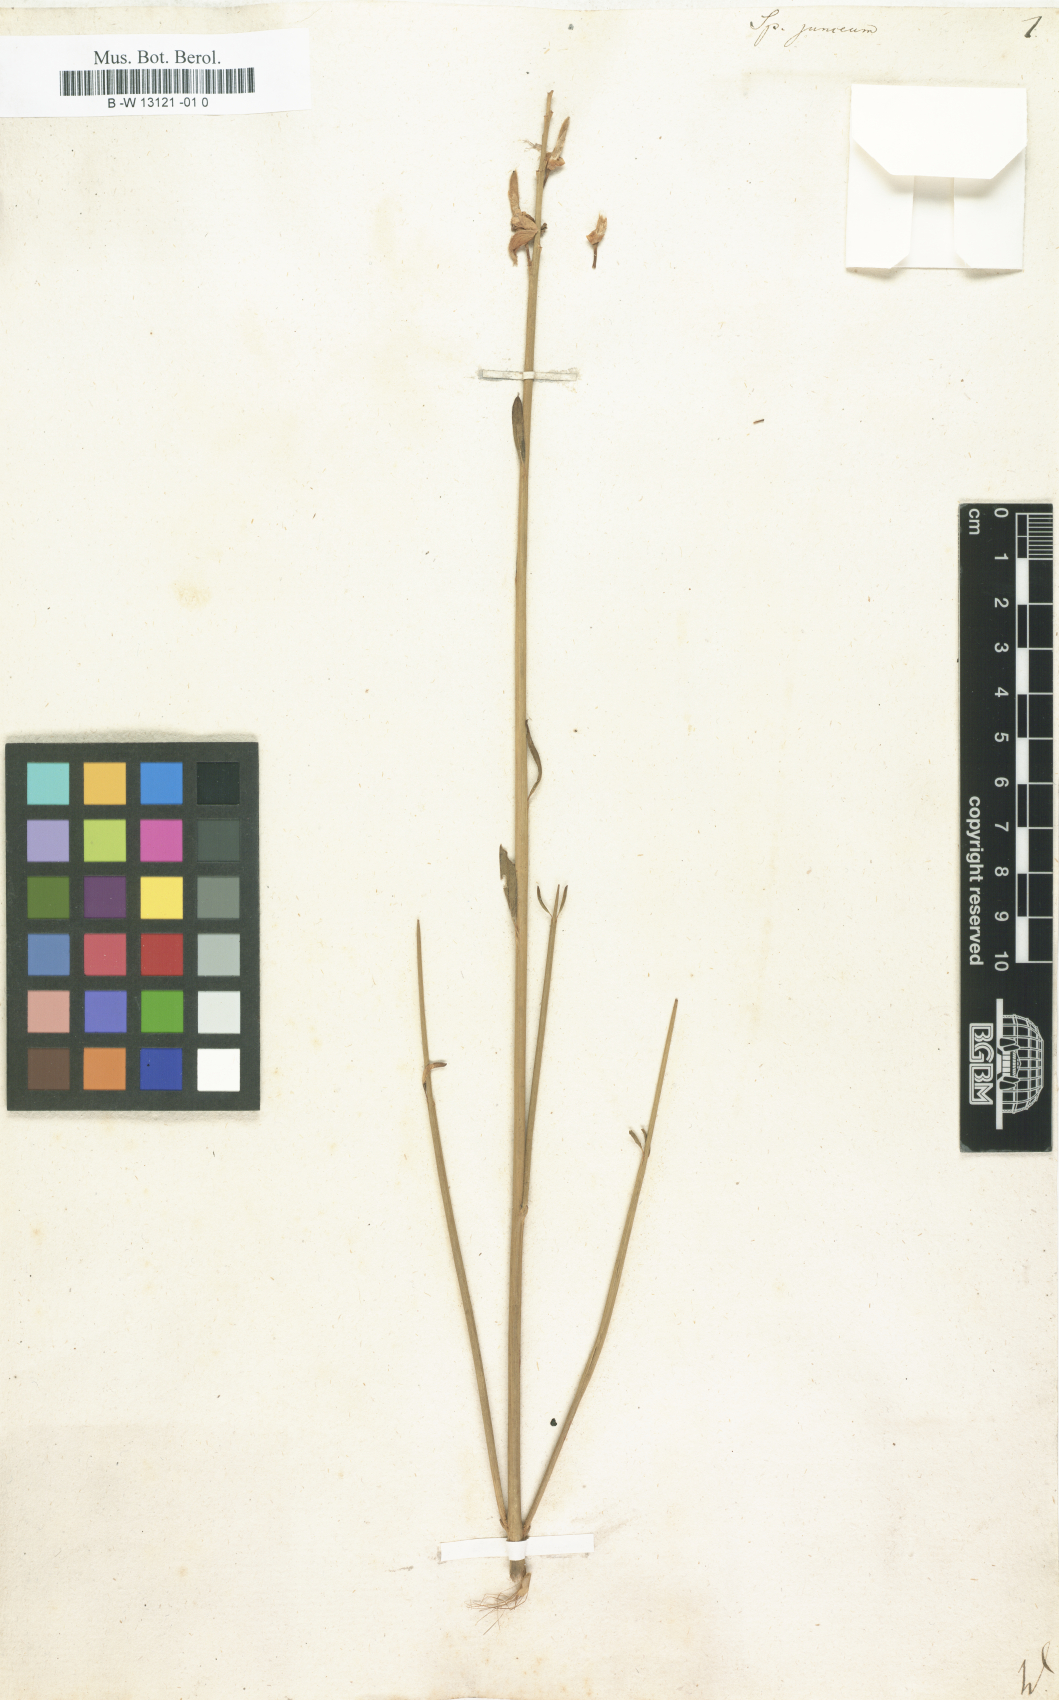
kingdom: Plantae
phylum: Tracheophyta
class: Magnoliopsida
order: Fabales
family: Fabaceae
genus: Spartium
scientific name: Spartium junceum
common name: Spanish broom
